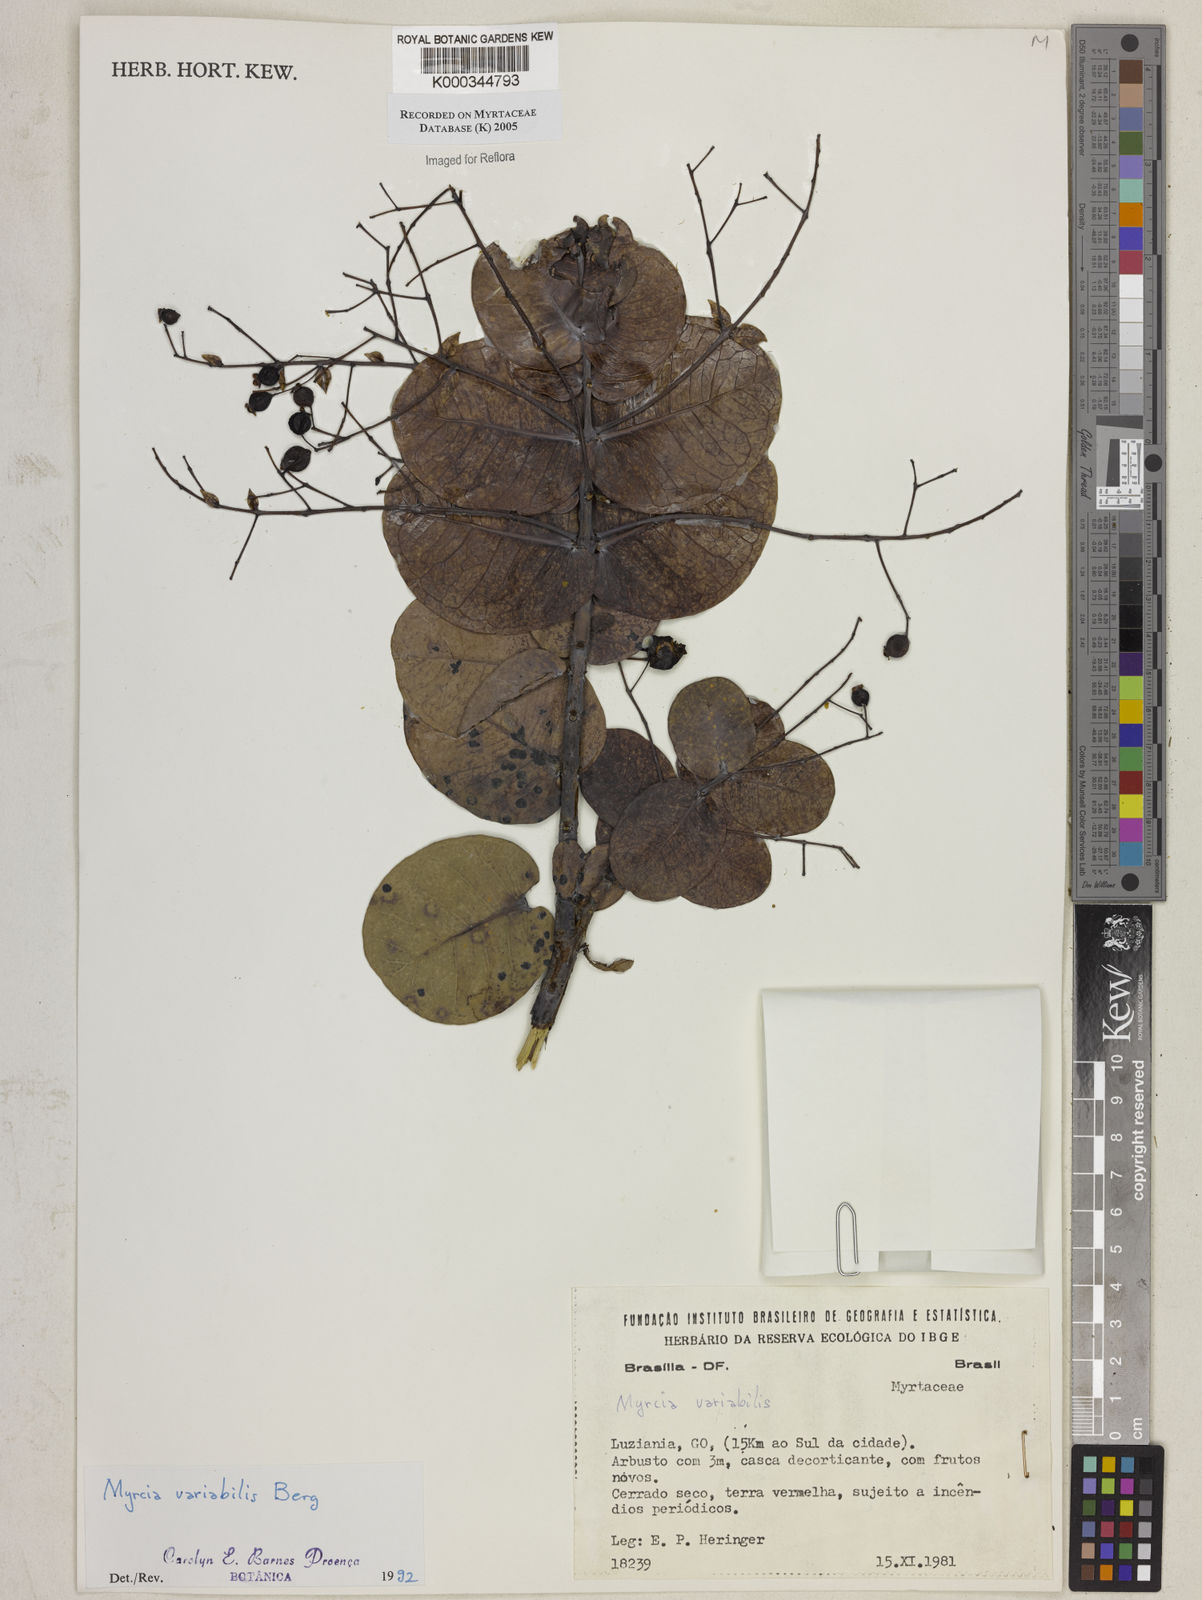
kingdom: Plantae
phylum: Tracheophyta
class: Magnoliopsida
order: Myrtales
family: Myrtaceae
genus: Myrcia
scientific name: Myrcia variabilis
